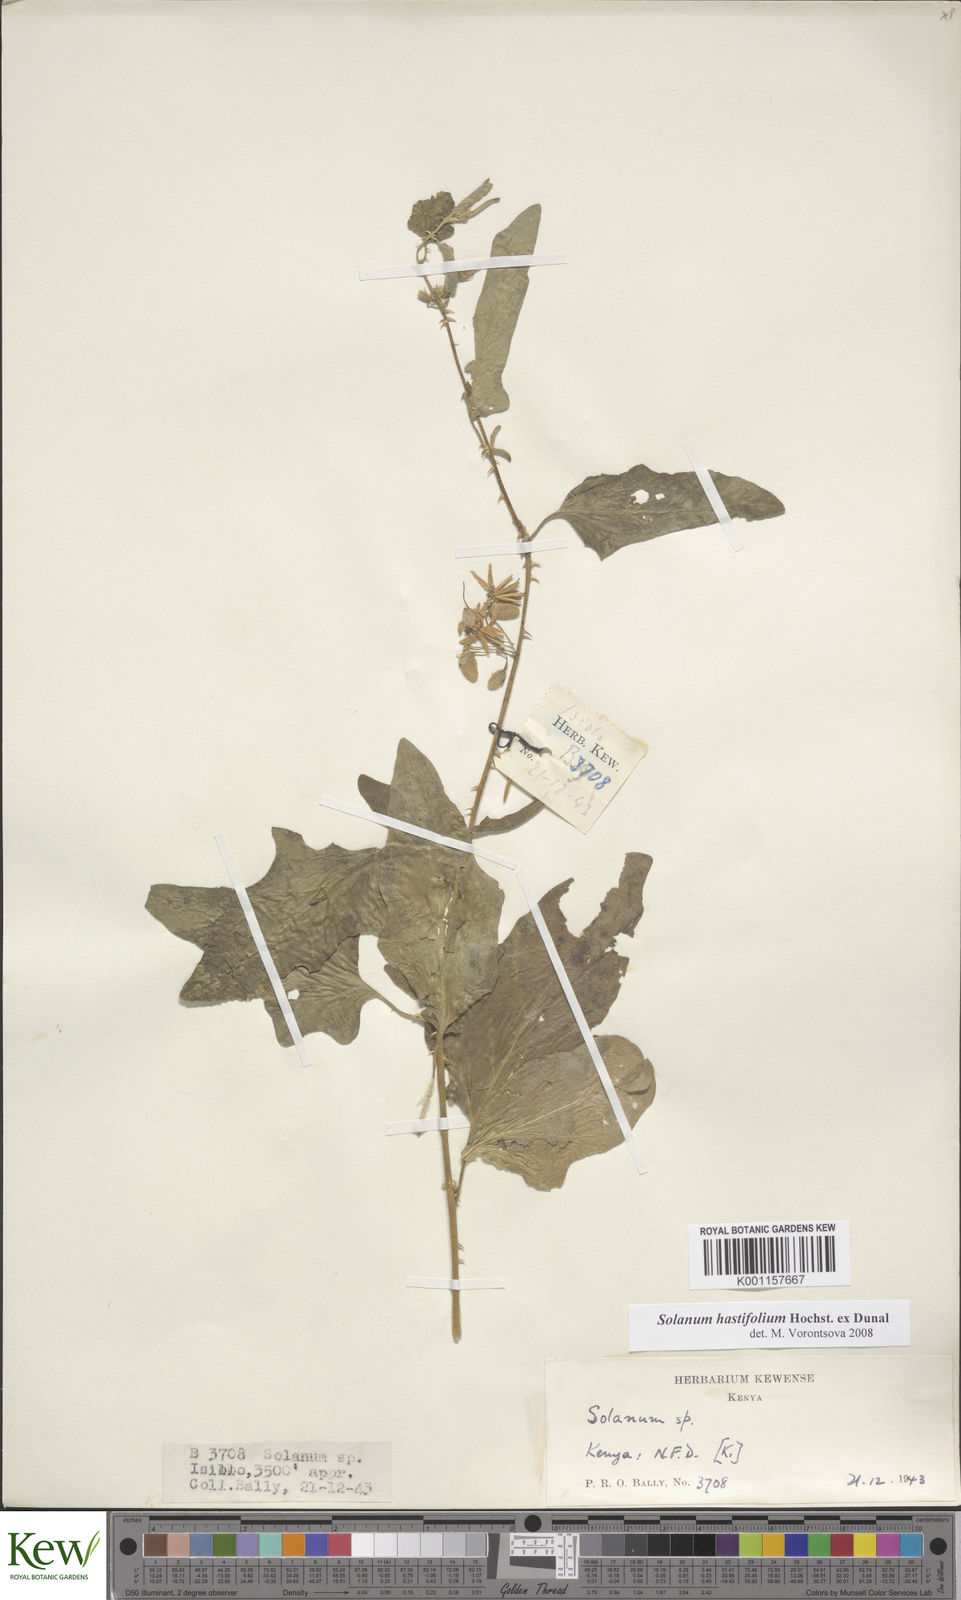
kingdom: Plantae
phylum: Tracheophyta
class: Magnoliopsida
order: Solanales
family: Solanaceae
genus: Solanum
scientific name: Solanum hastifolium
